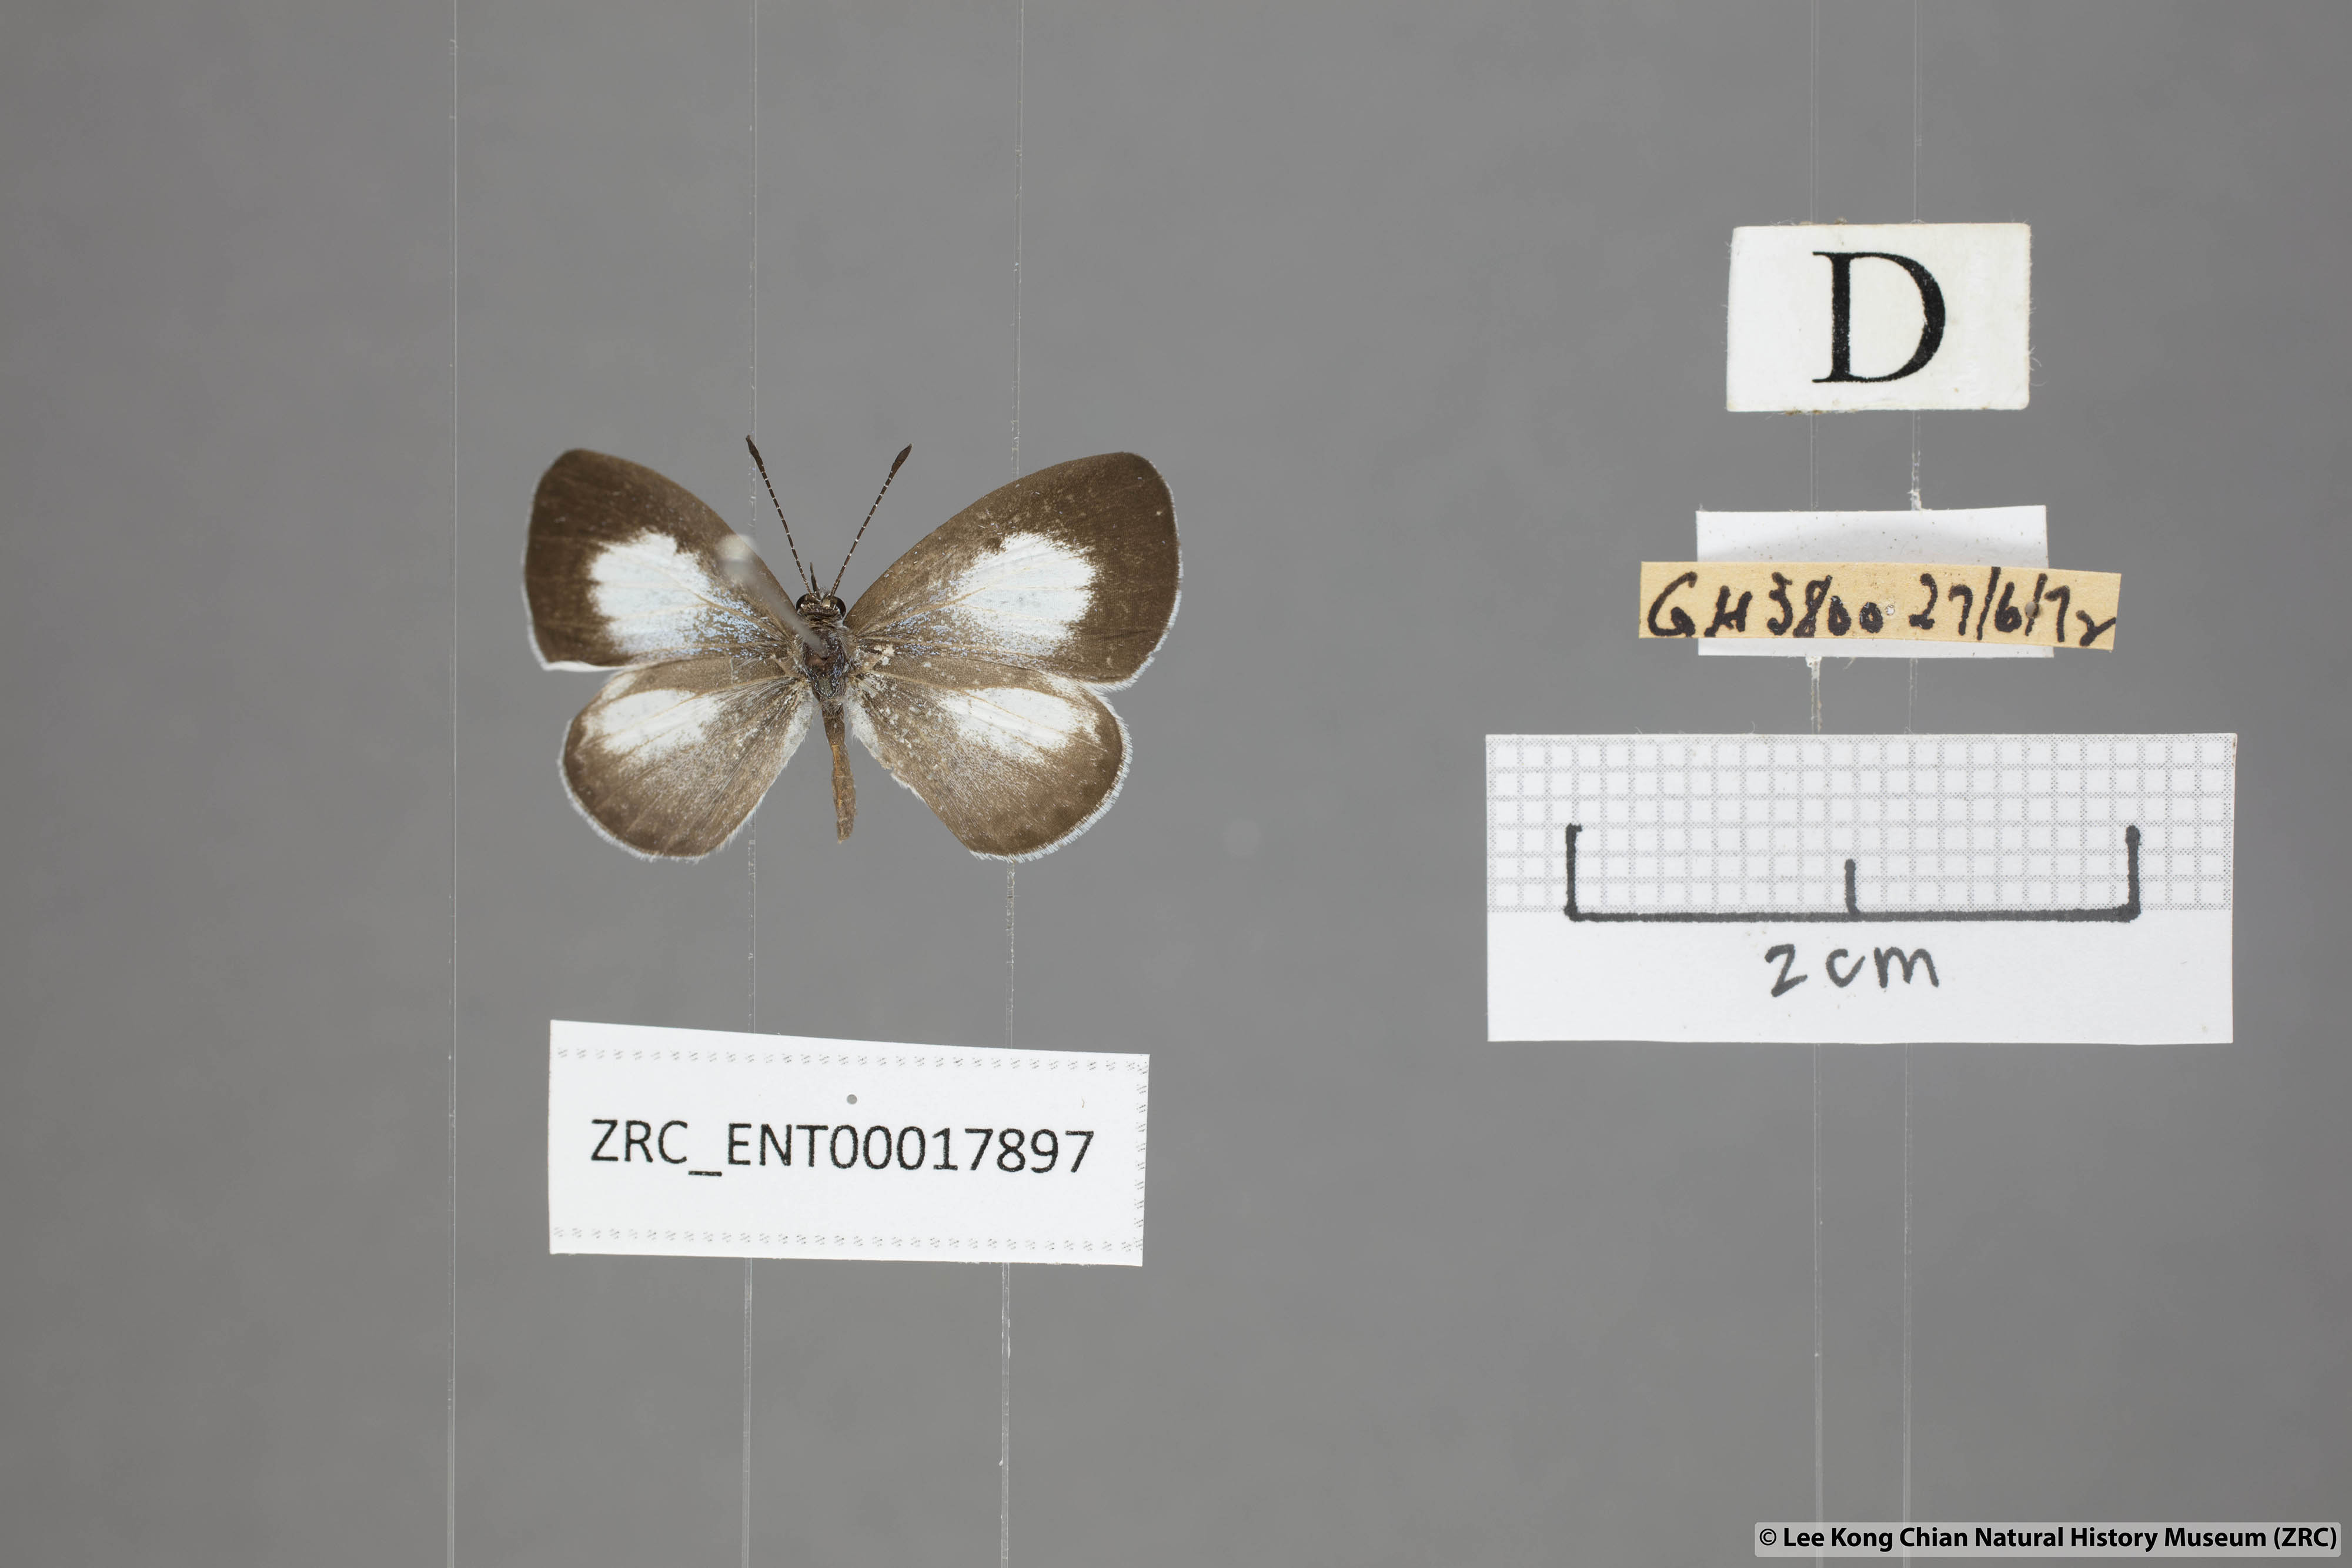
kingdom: Animalia
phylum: Arthropoda
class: Insecta
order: Lepidoptera
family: Lycaenidae
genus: Oreolyce
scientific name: Oreolyce
